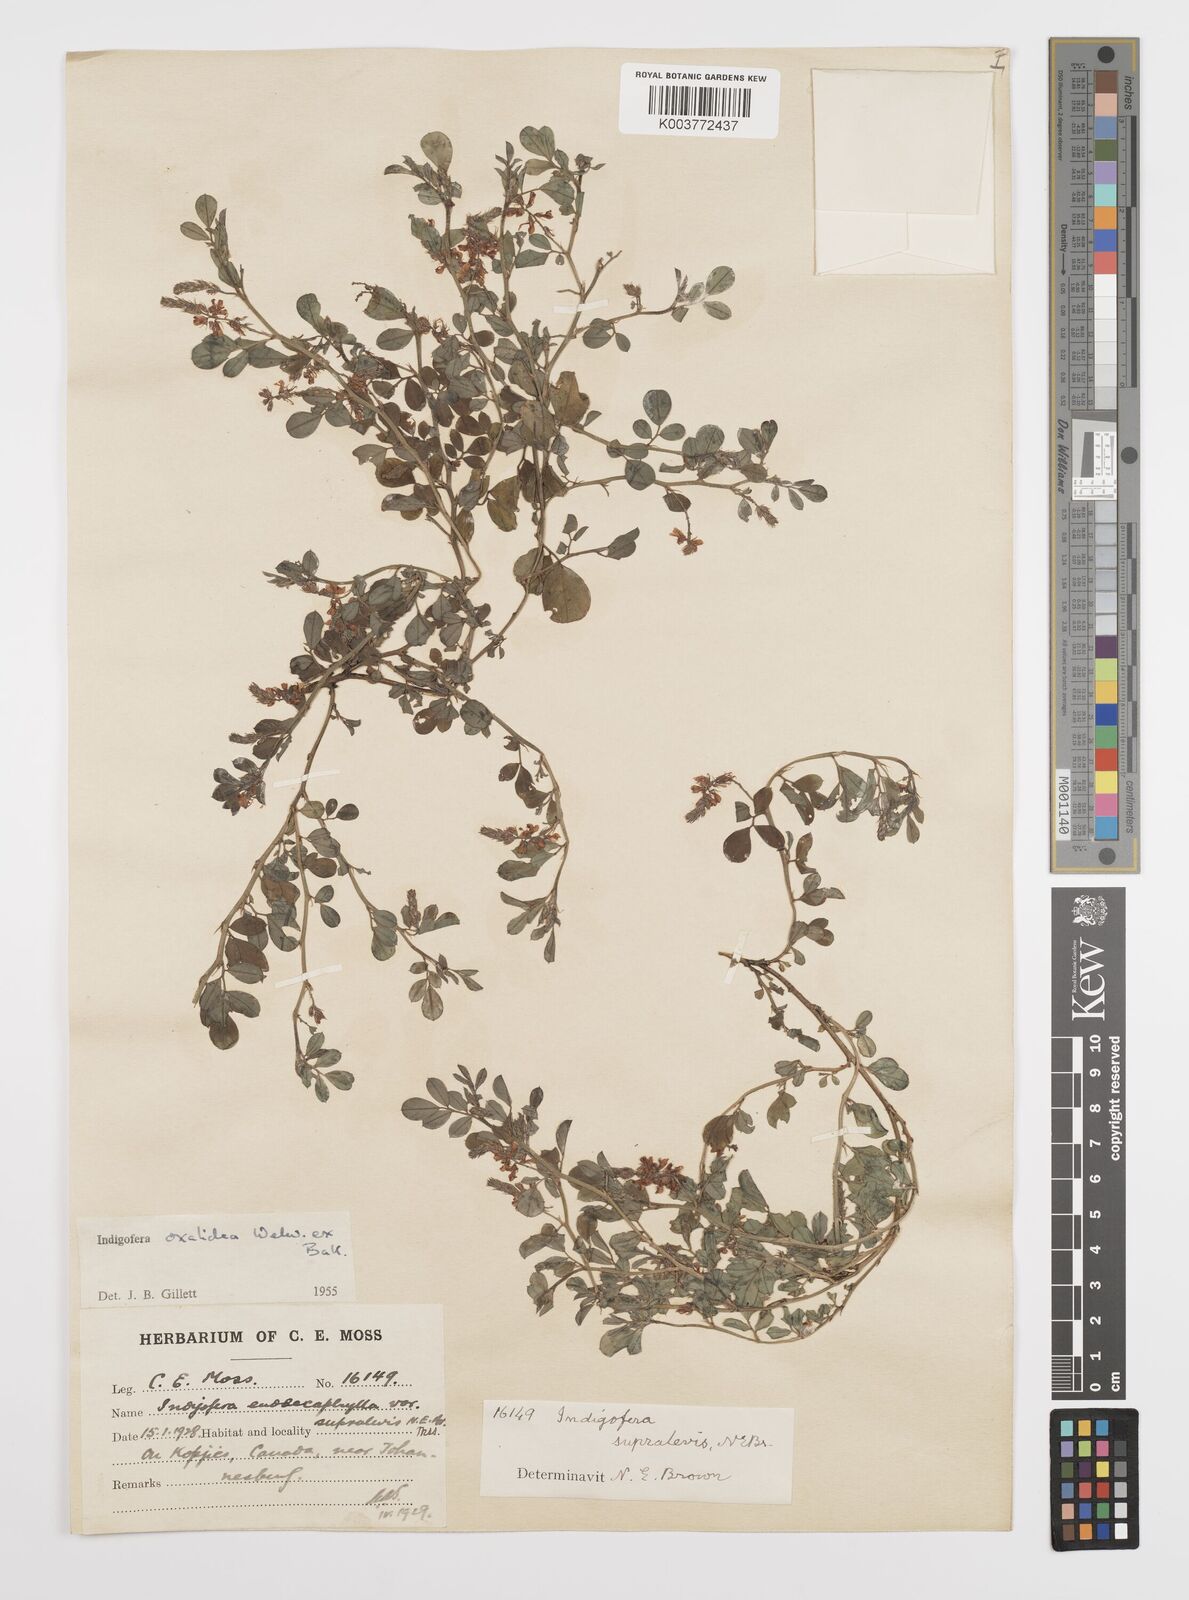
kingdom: Plantae
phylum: Tracheophyta
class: Magnoliopsida
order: Fabales
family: Fabaceae
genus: Indigofera
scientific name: Indigofera oxalidea
